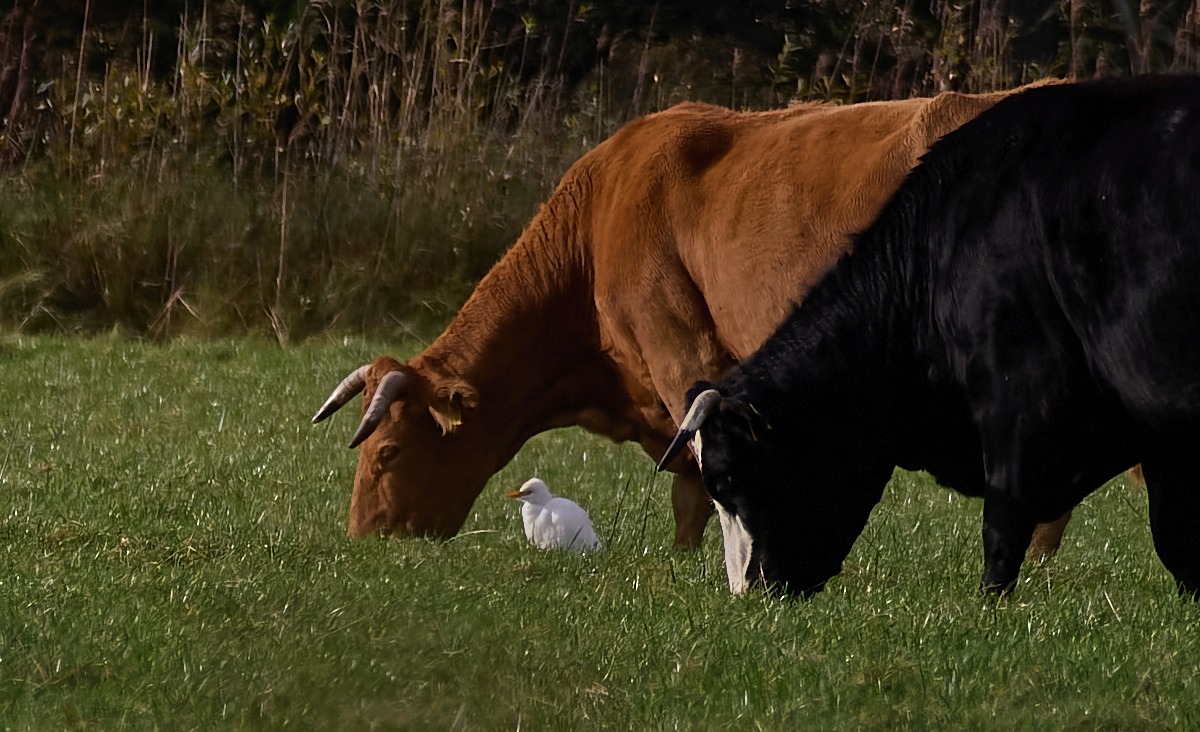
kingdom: Animalia
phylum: Chordata
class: Aves
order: Pelecaniformes
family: Ardeidae
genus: Bubulcus
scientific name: Bubulcus ibis
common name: Kohejre
